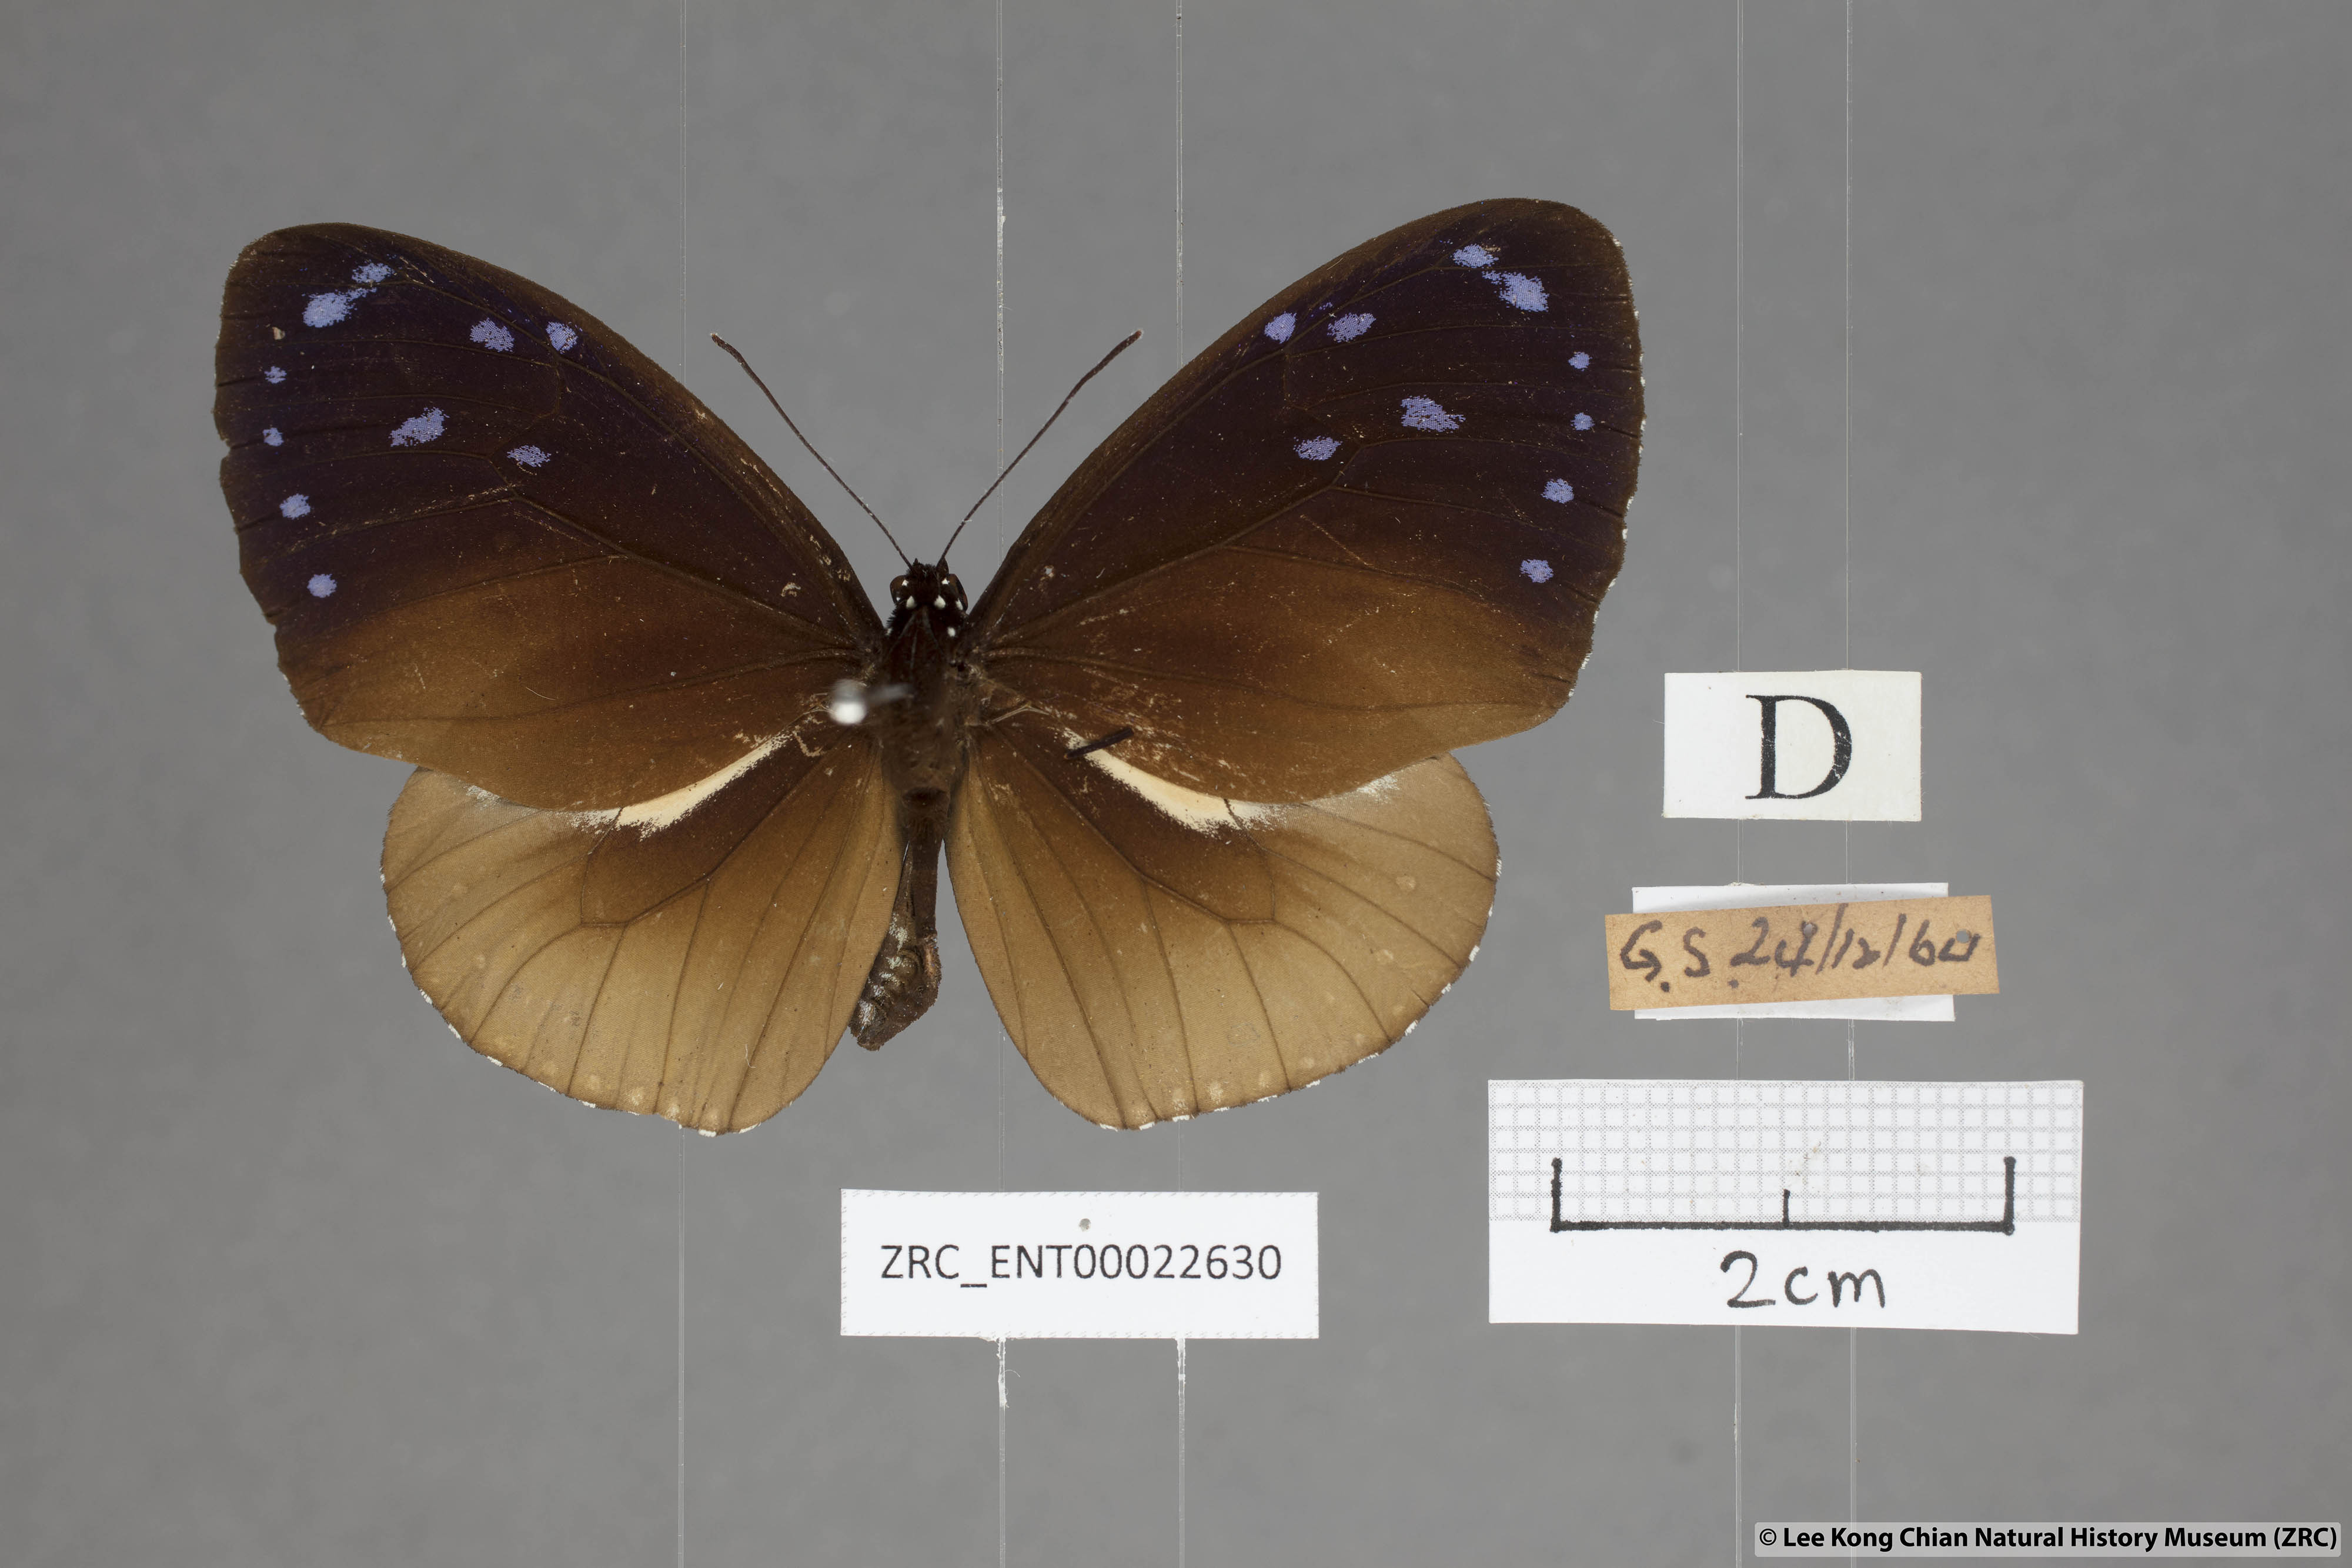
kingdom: Animalia
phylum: Arthropoda
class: Insecta
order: Lepidoptera
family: Nymphalidae
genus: Euploea
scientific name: Euploea tulliolus
